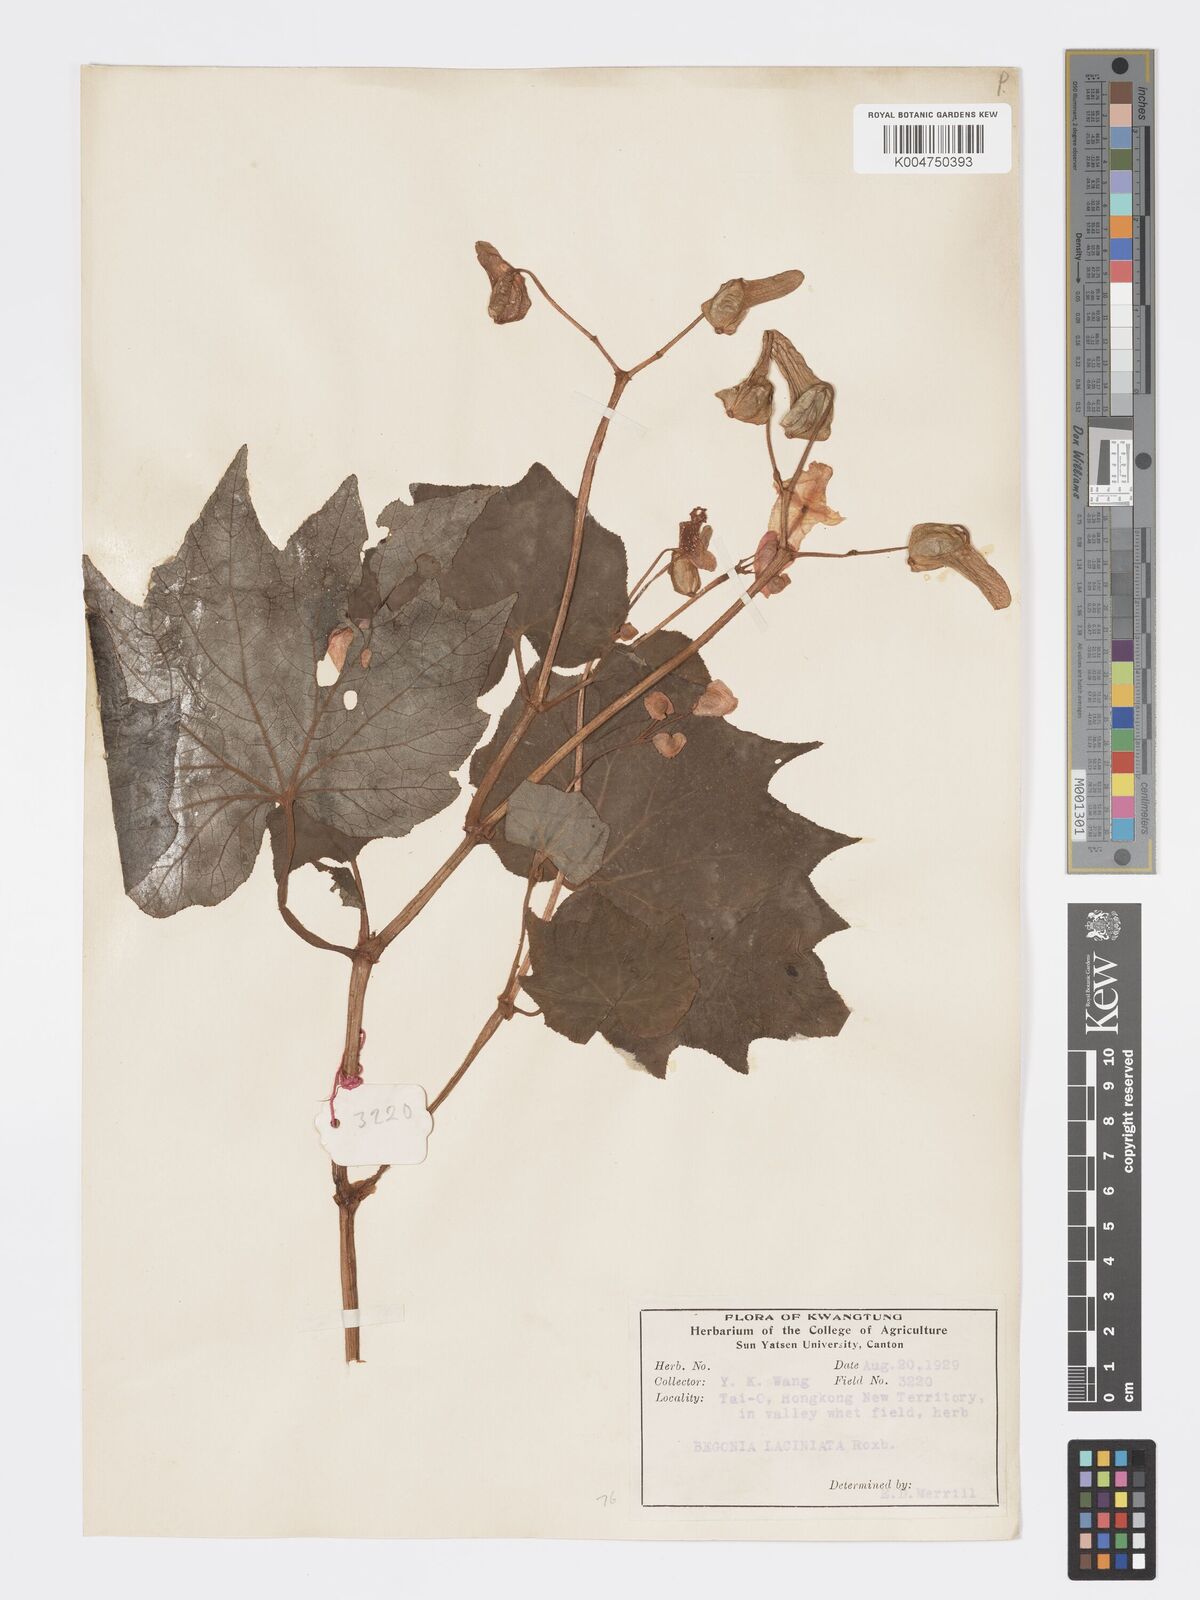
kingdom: Plantae
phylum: Tracheophyta
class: Magnoliopsida
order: Cucurbitales
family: Begoniaceae
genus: Begonia
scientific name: Begonia palmata
